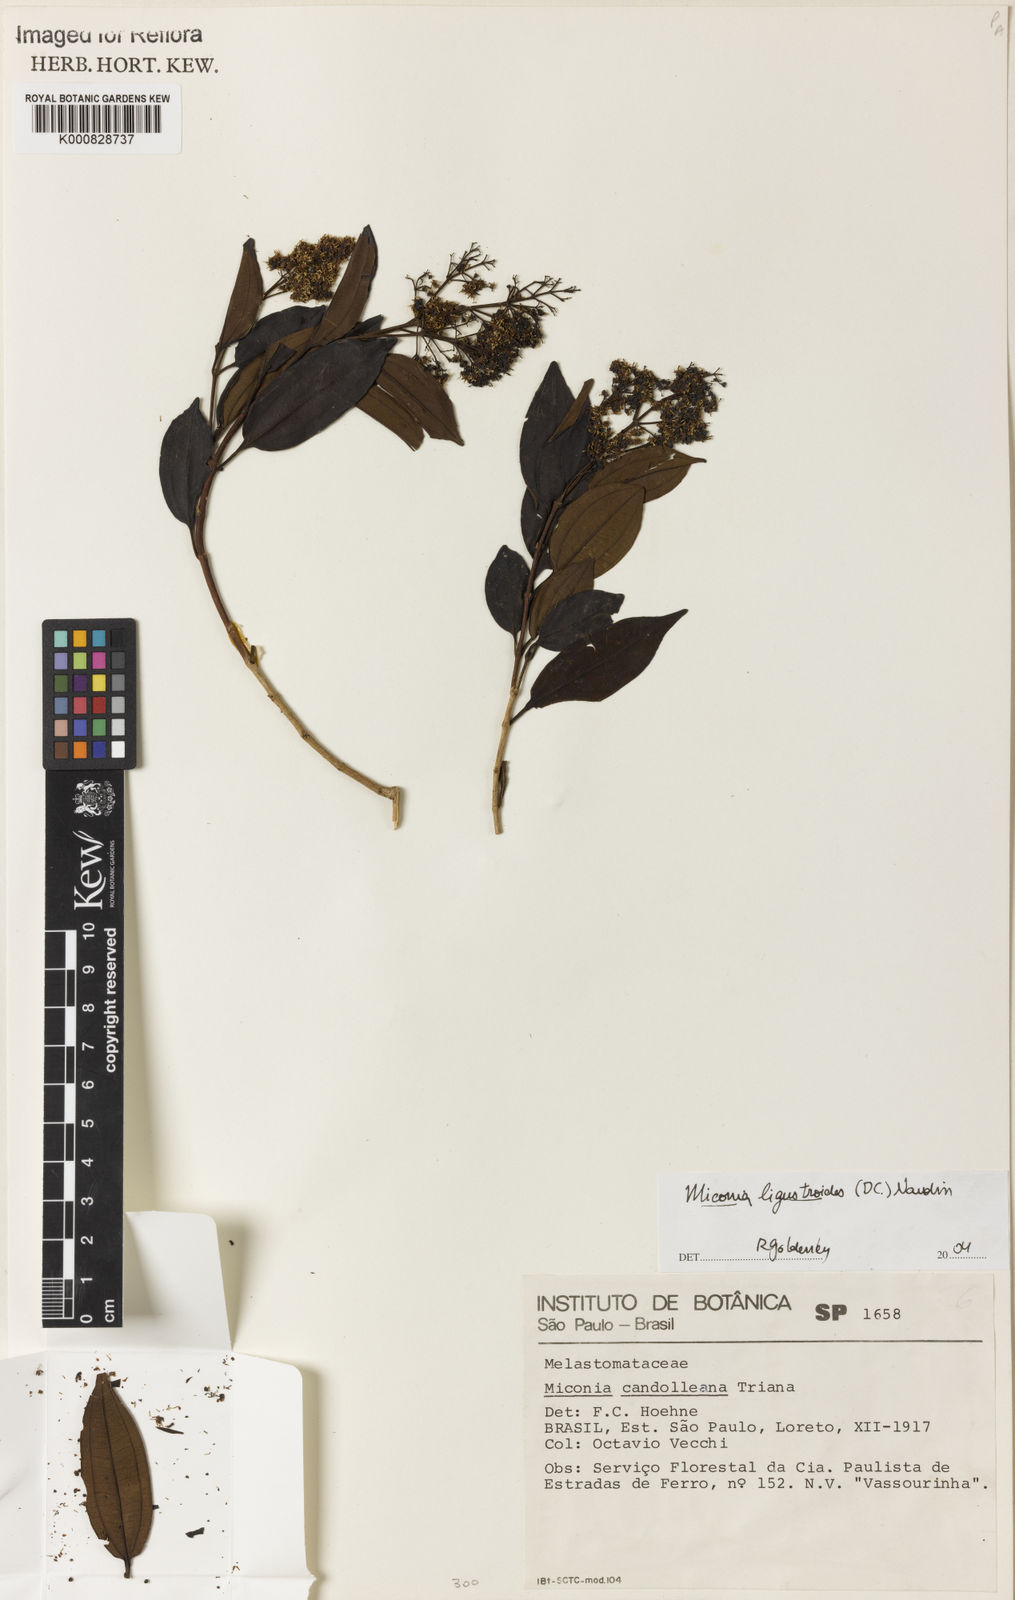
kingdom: Plantae
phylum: Tracheophyta
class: Magnoliopsida
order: Myrtales
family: Melastomataceae
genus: Miconia
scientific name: Miconia ligustroides
